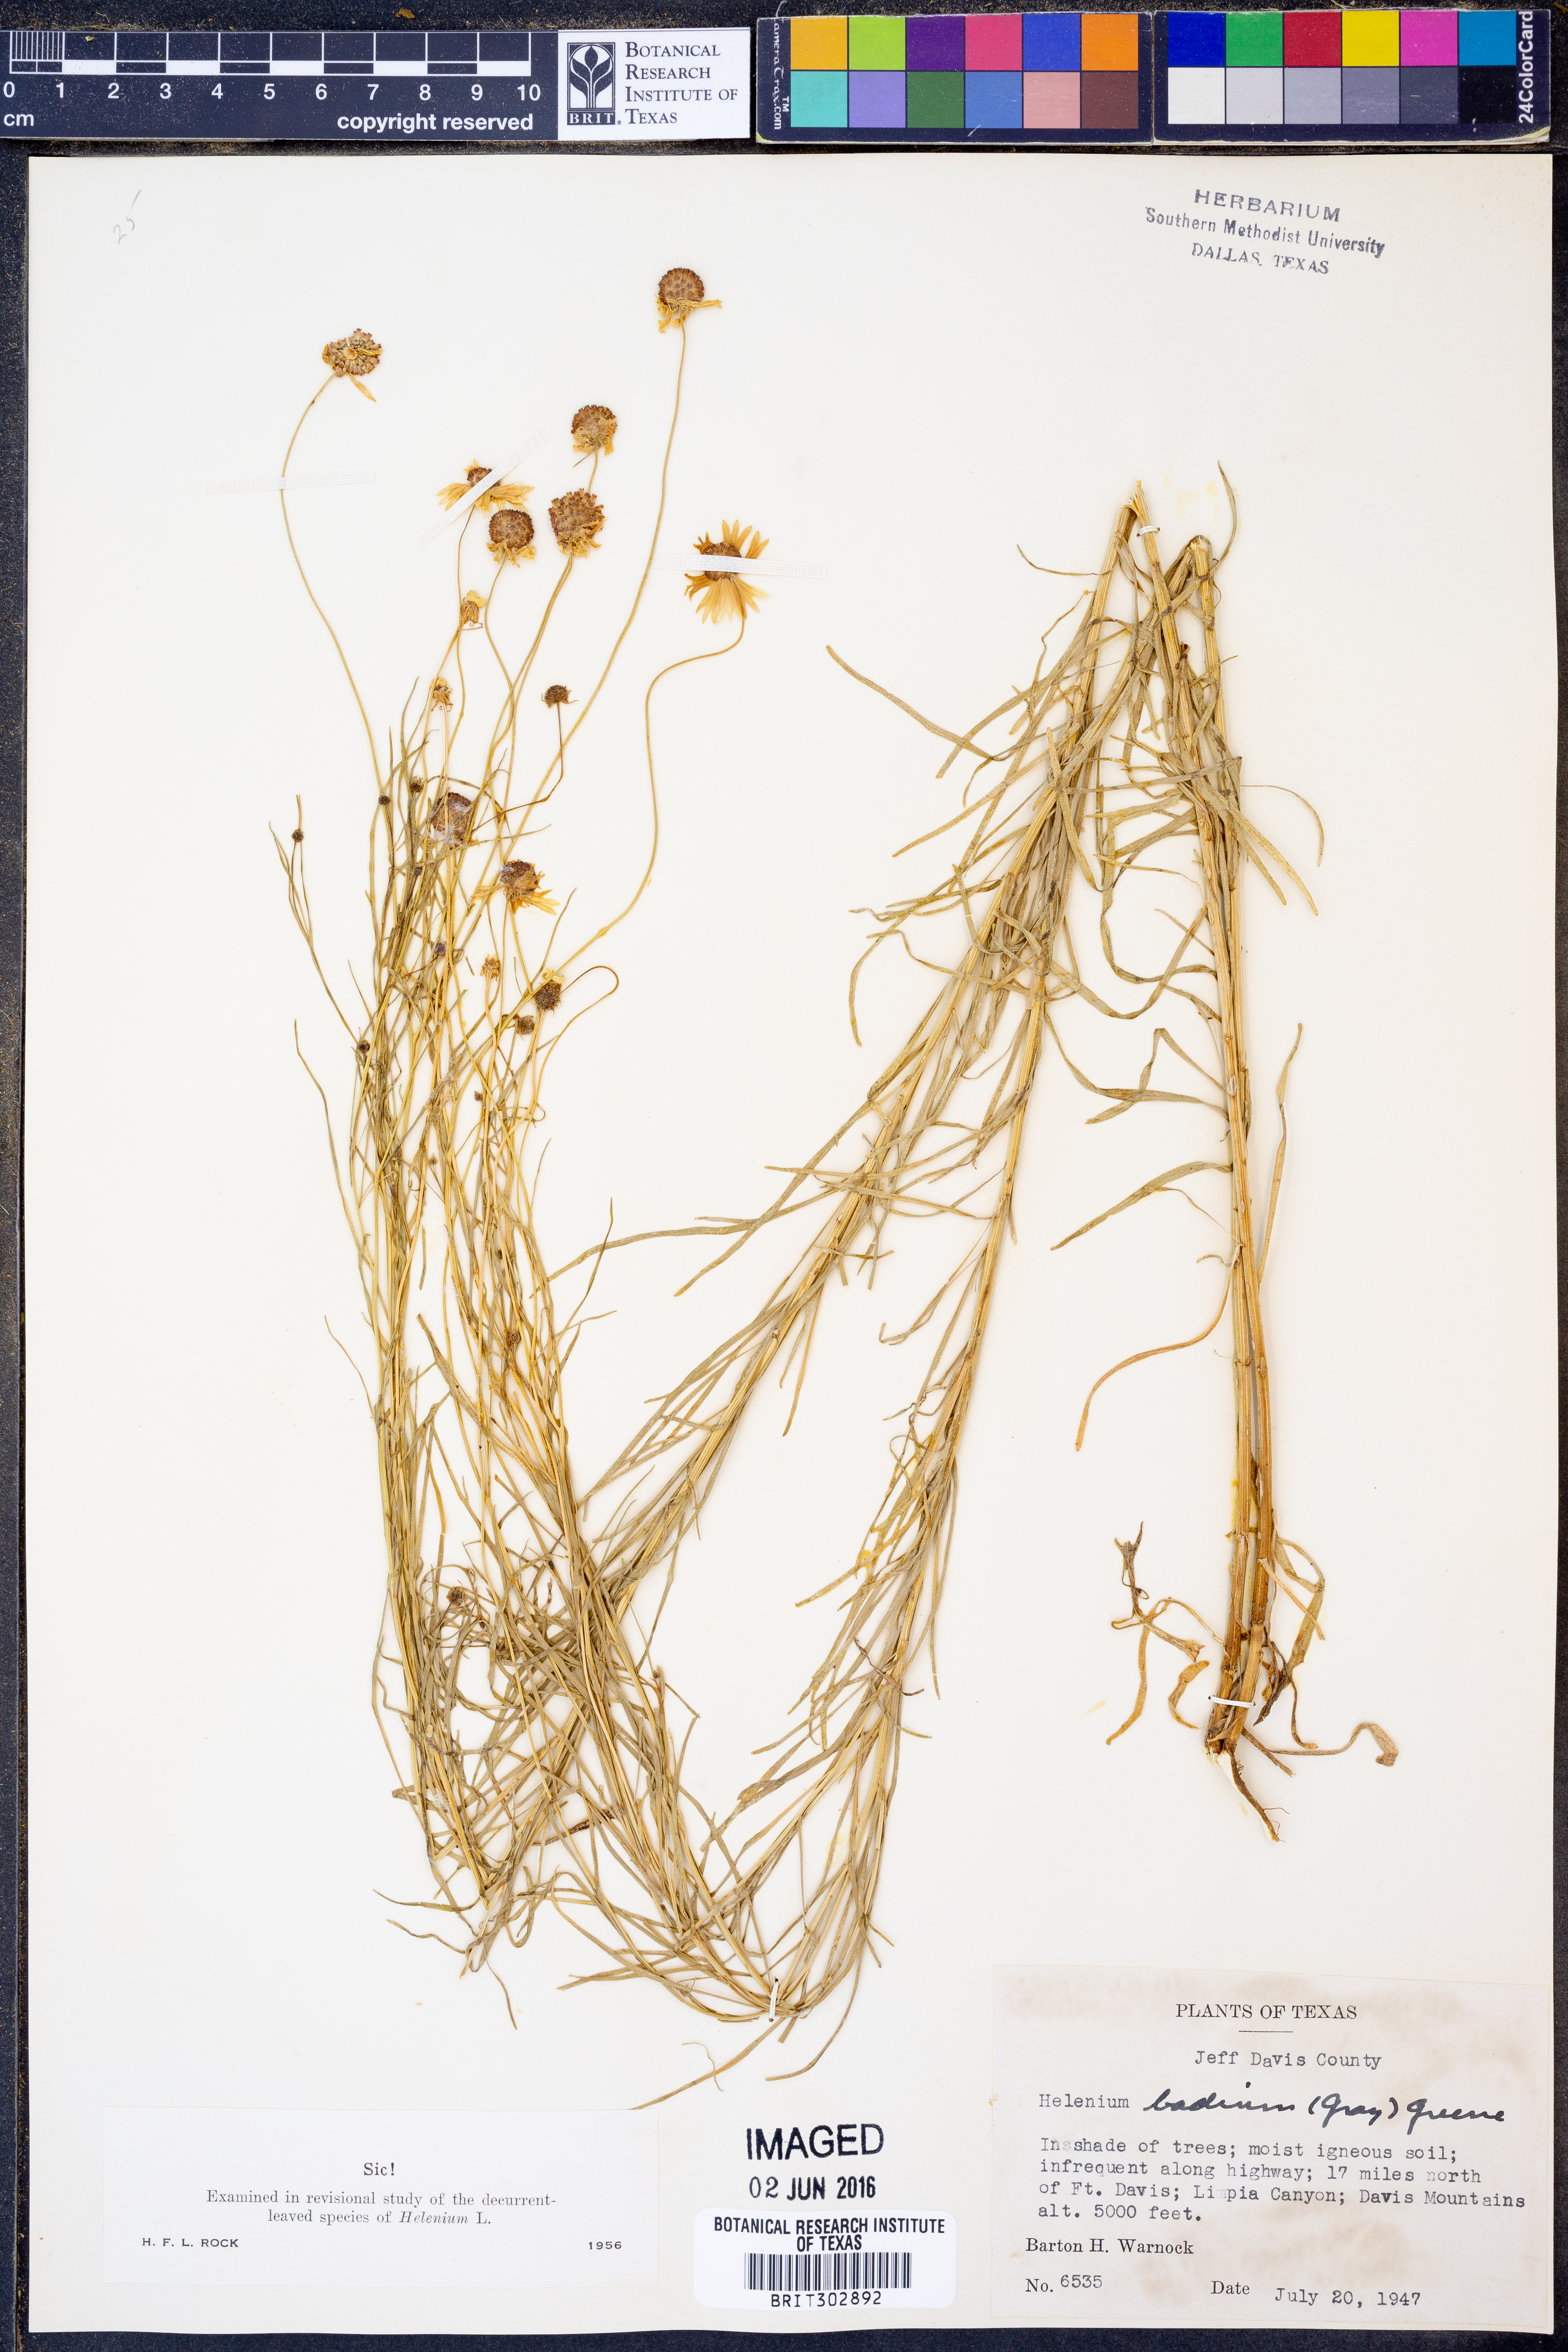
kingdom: Plantae
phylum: Tracheophyta
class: Magnoliopsida
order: Asterales
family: Asteraceae
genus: Helenium
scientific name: Helenium amarum
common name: Bitter sneezeweed
